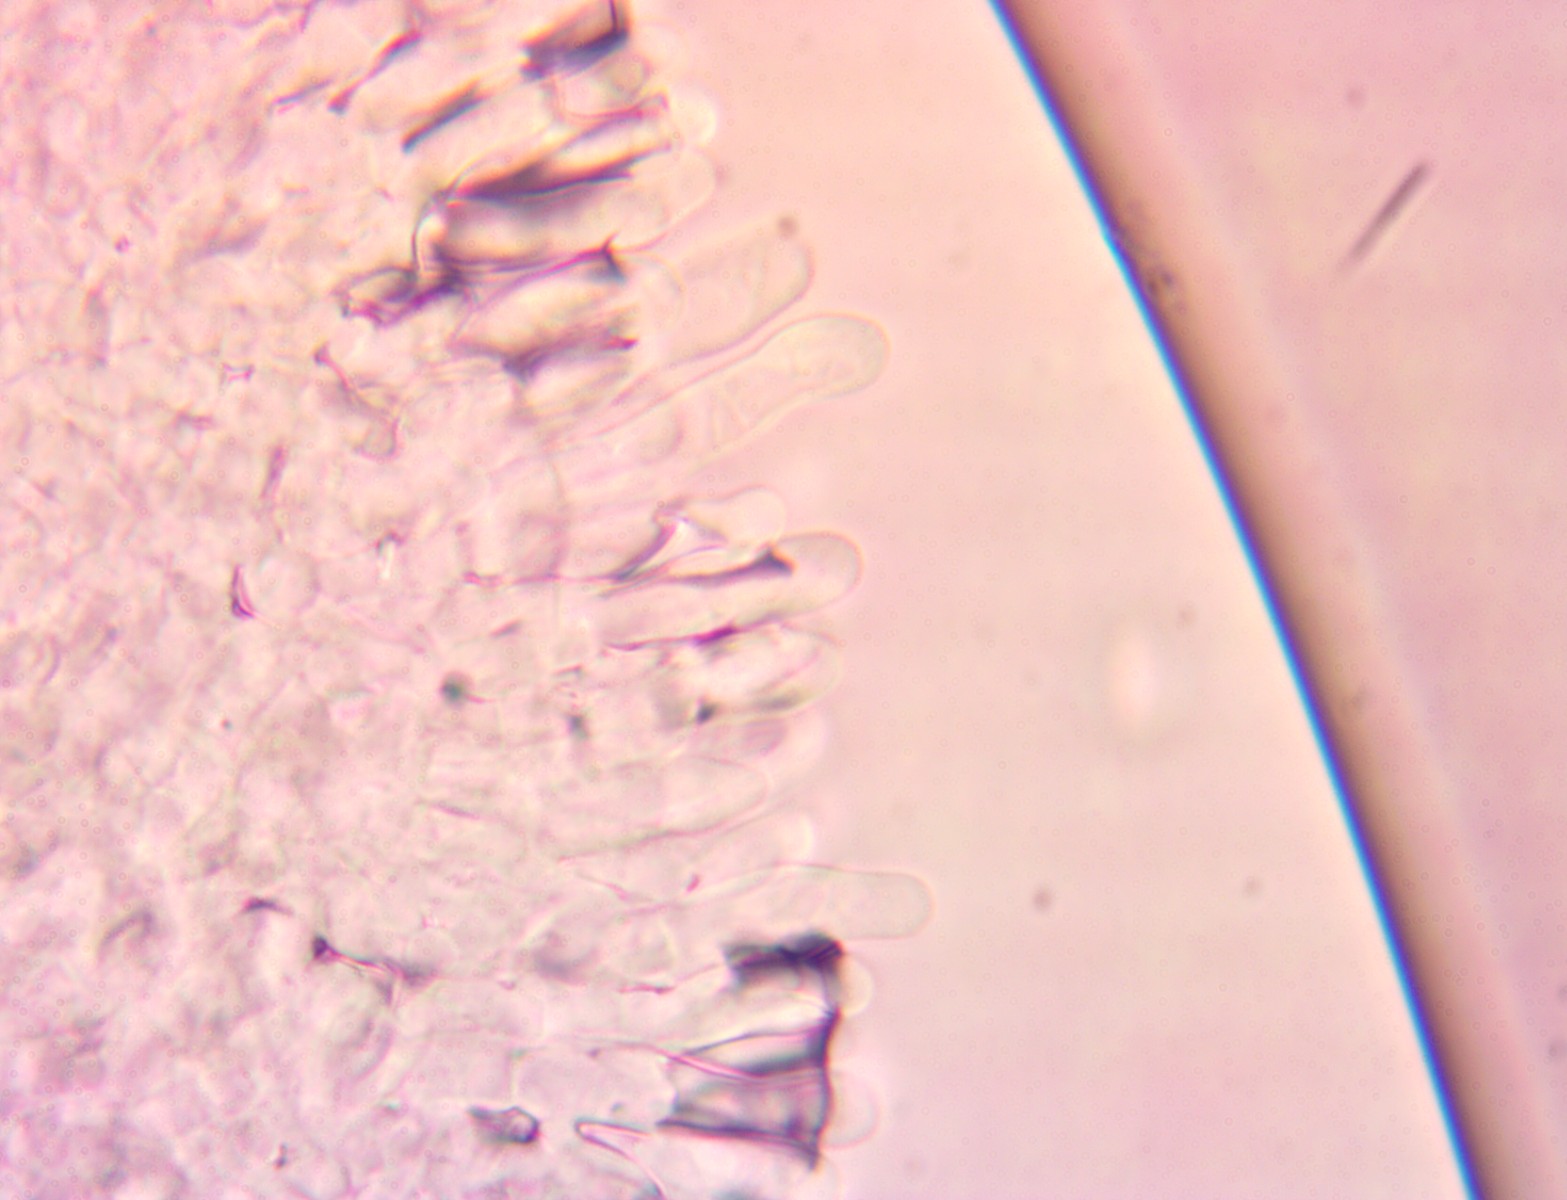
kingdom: Fungi
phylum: Basidiomycota
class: Agaricomycetes
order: Agaricales
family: Agaricaceae
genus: Lepiota
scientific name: Lepiota forquignonii
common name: olivenbrun parasolhat
